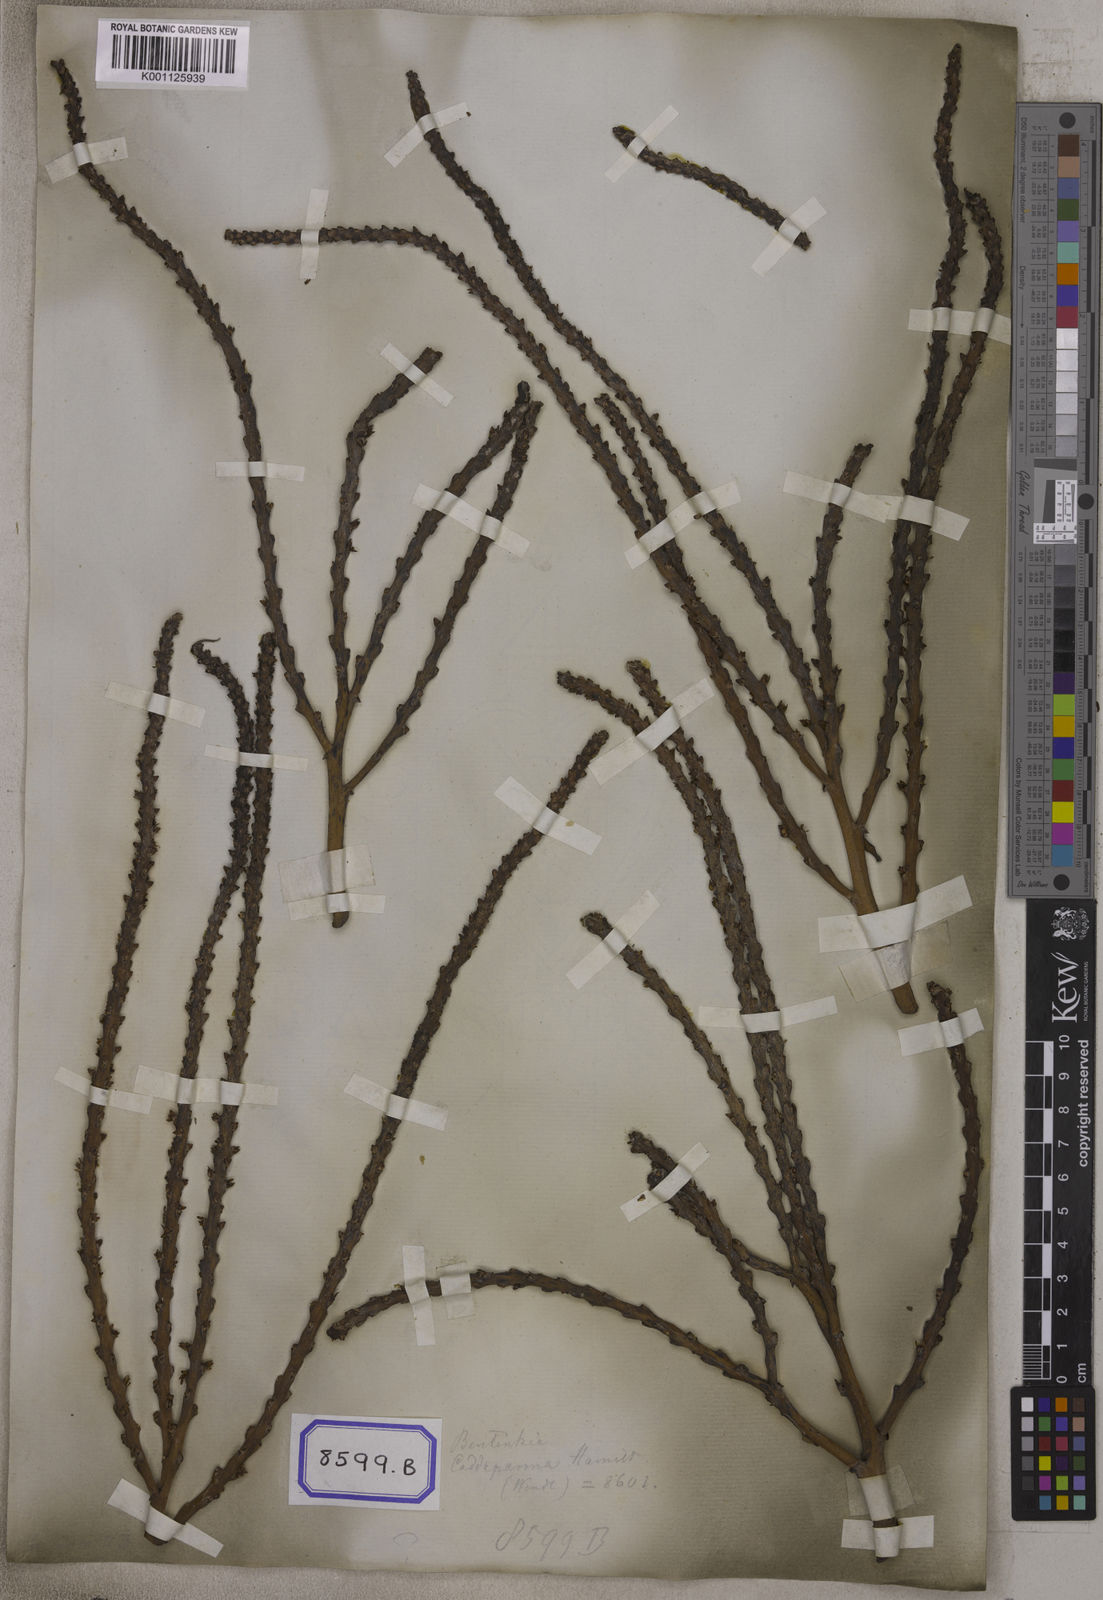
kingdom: Plantae
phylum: Tracheophyta
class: Liliopsida
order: Arecales
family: Arecaceae
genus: Areca
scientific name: Areca
